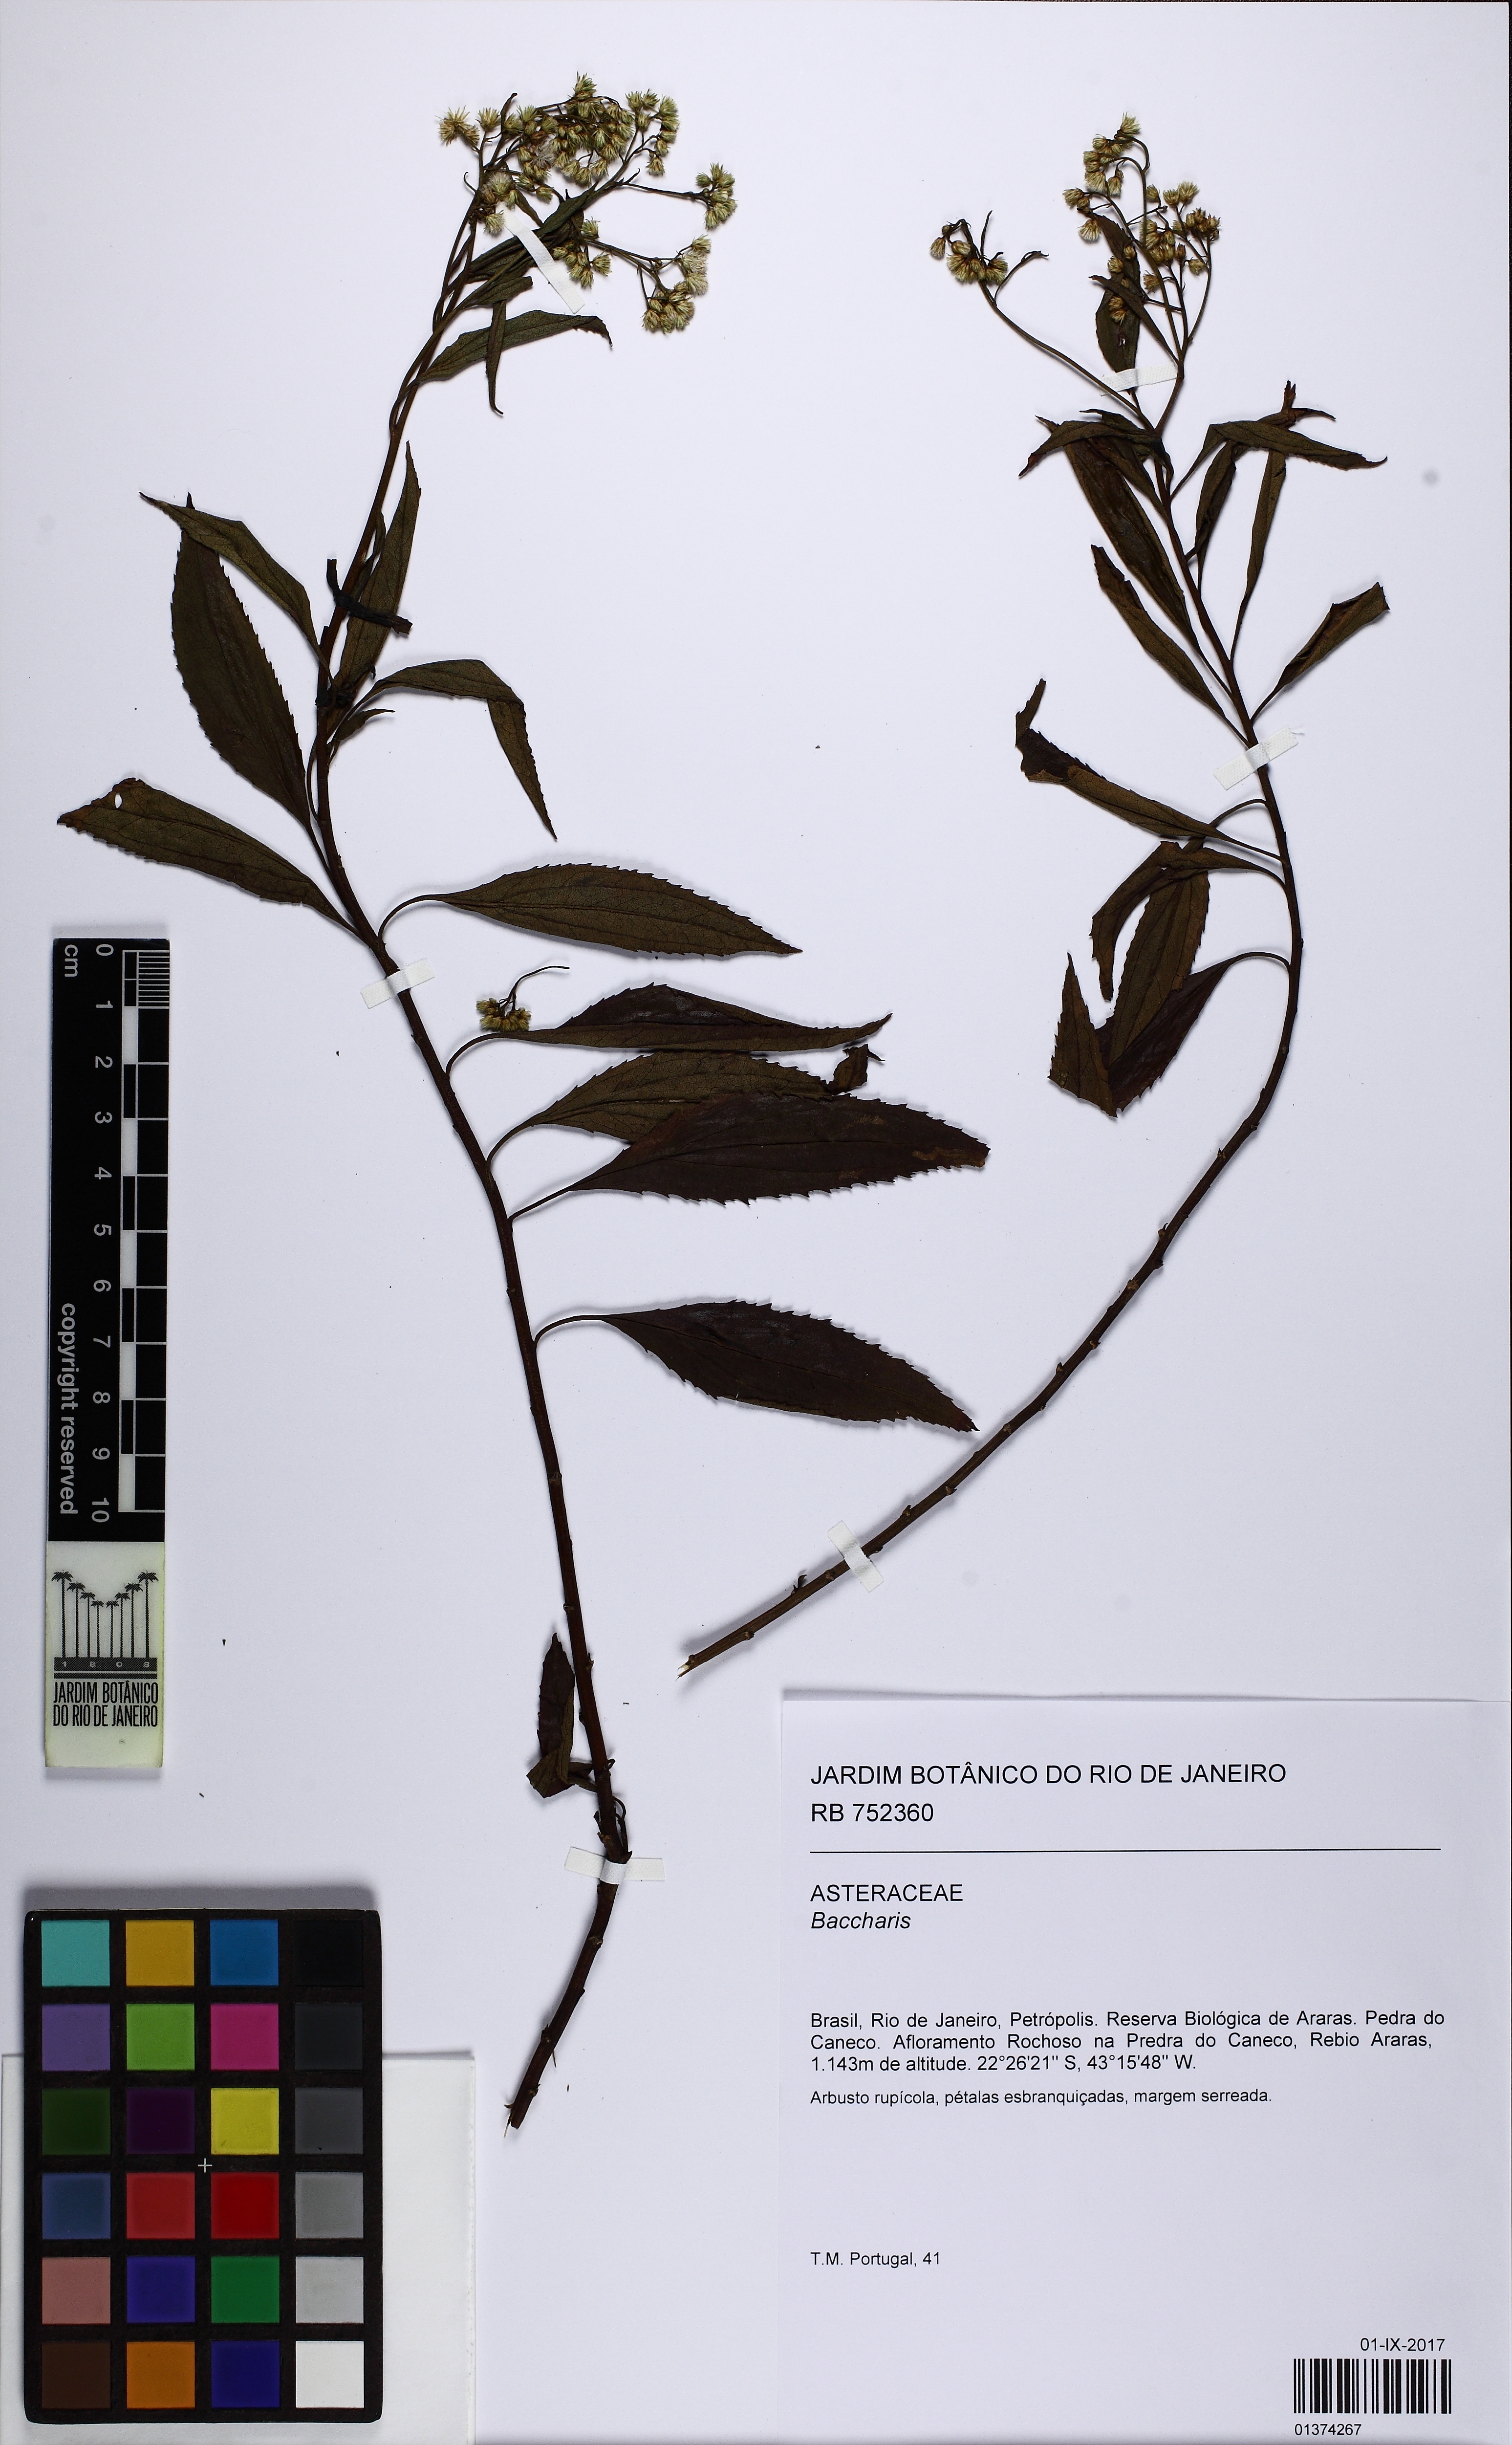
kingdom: Plantae
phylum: Tracheophyta
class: Magnoliopsida
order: Asterales
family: Asteraceae
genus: Baccharis
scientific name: Baccharis serrulata
